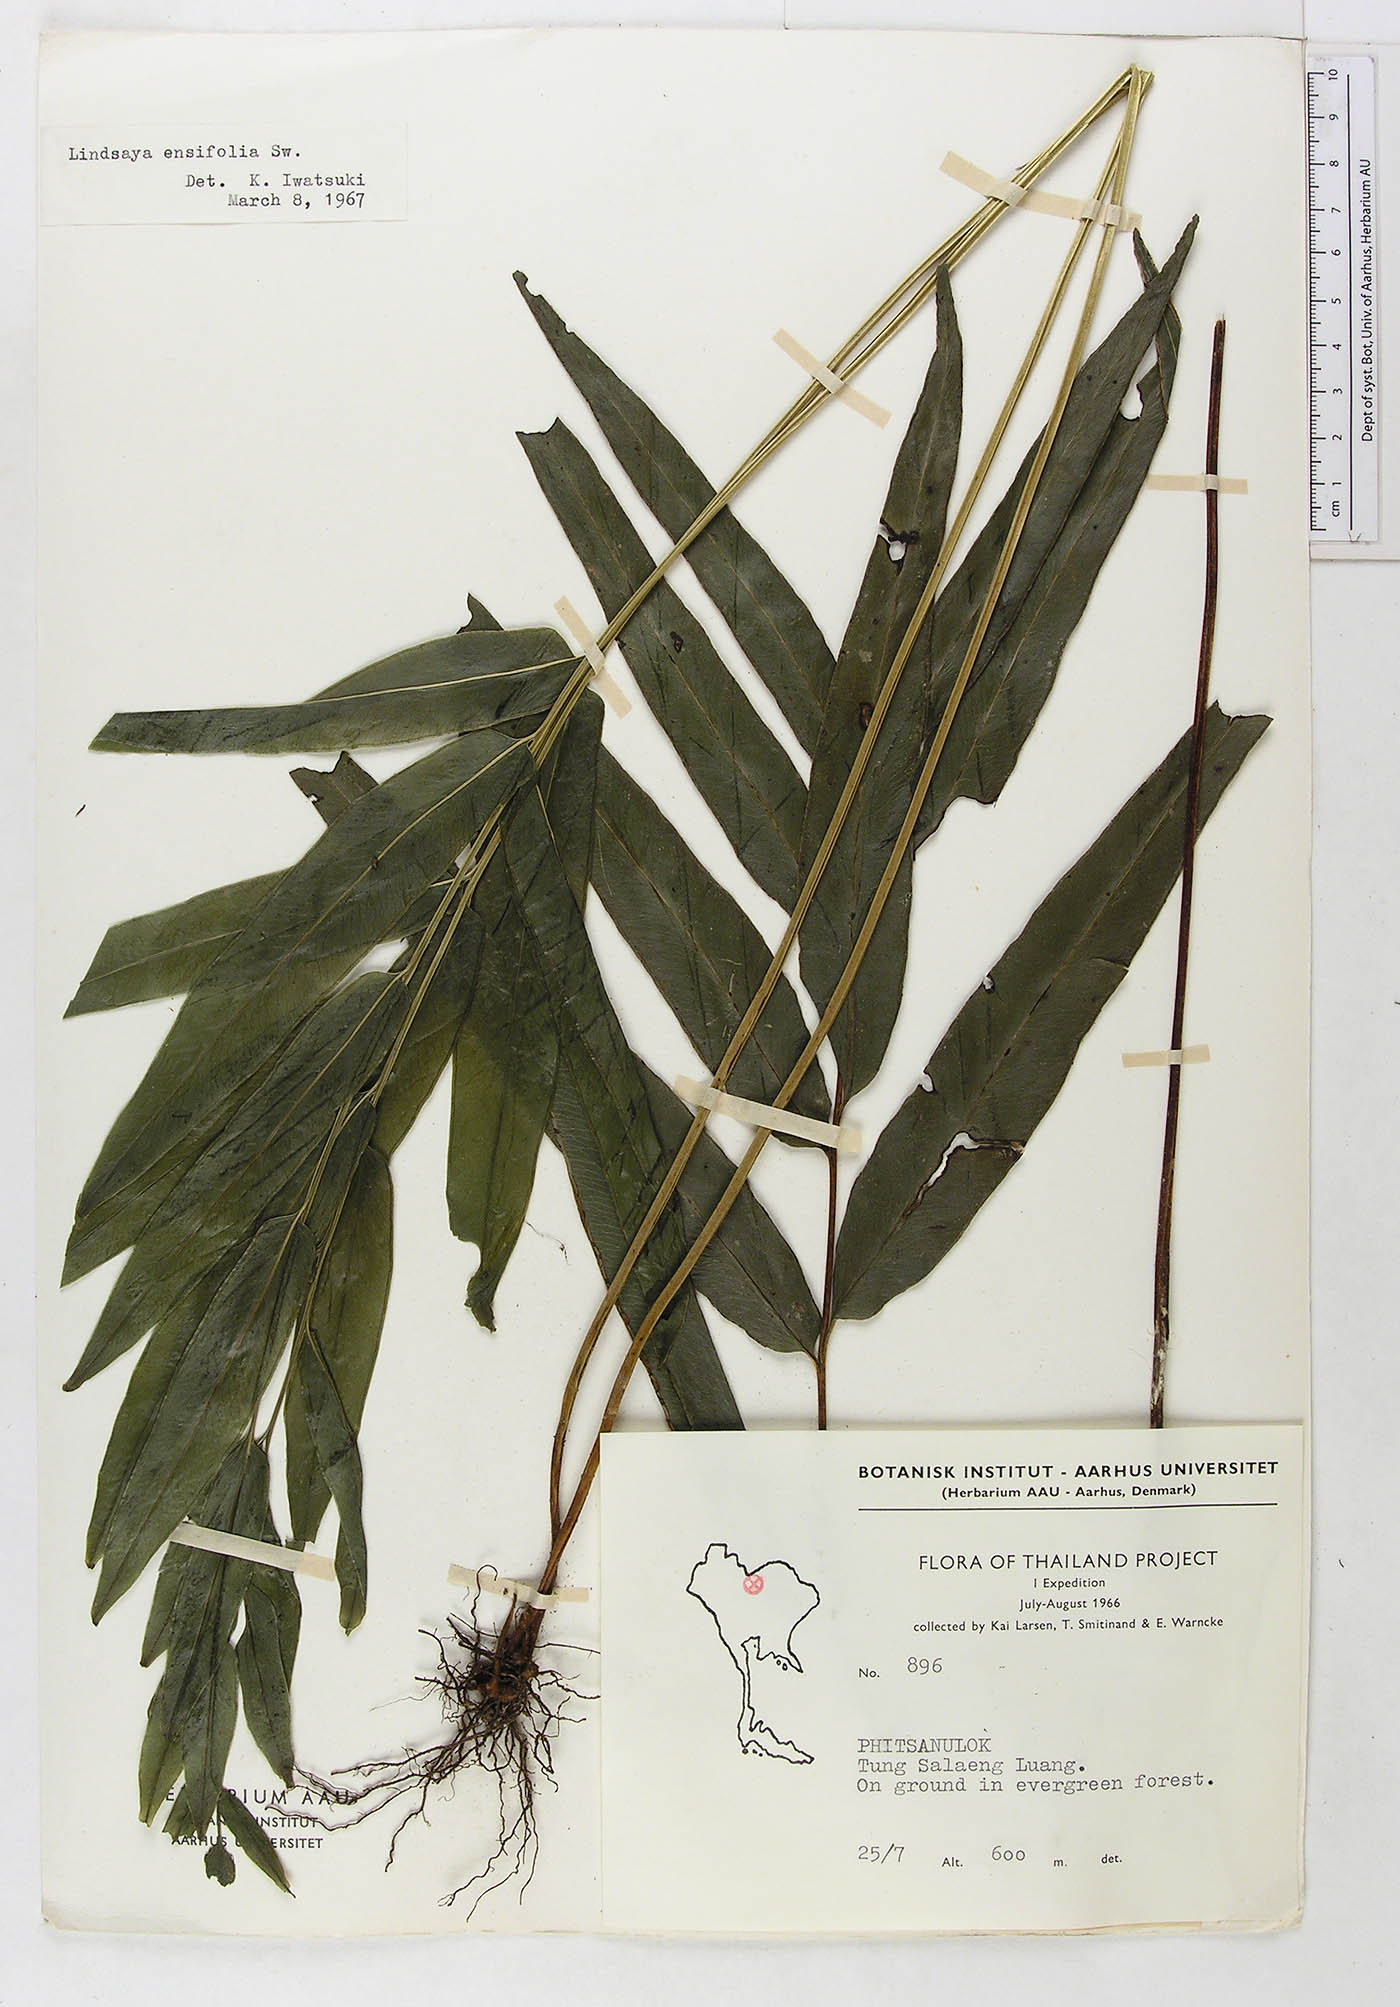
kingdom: Plantae
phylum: Tracheophyta
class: Polypodiopsida
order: Polypodiales
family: Lindsaeaceae
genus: Lindsaea
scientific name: Lindsaea ensifolia
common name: Graceful necklace fern
